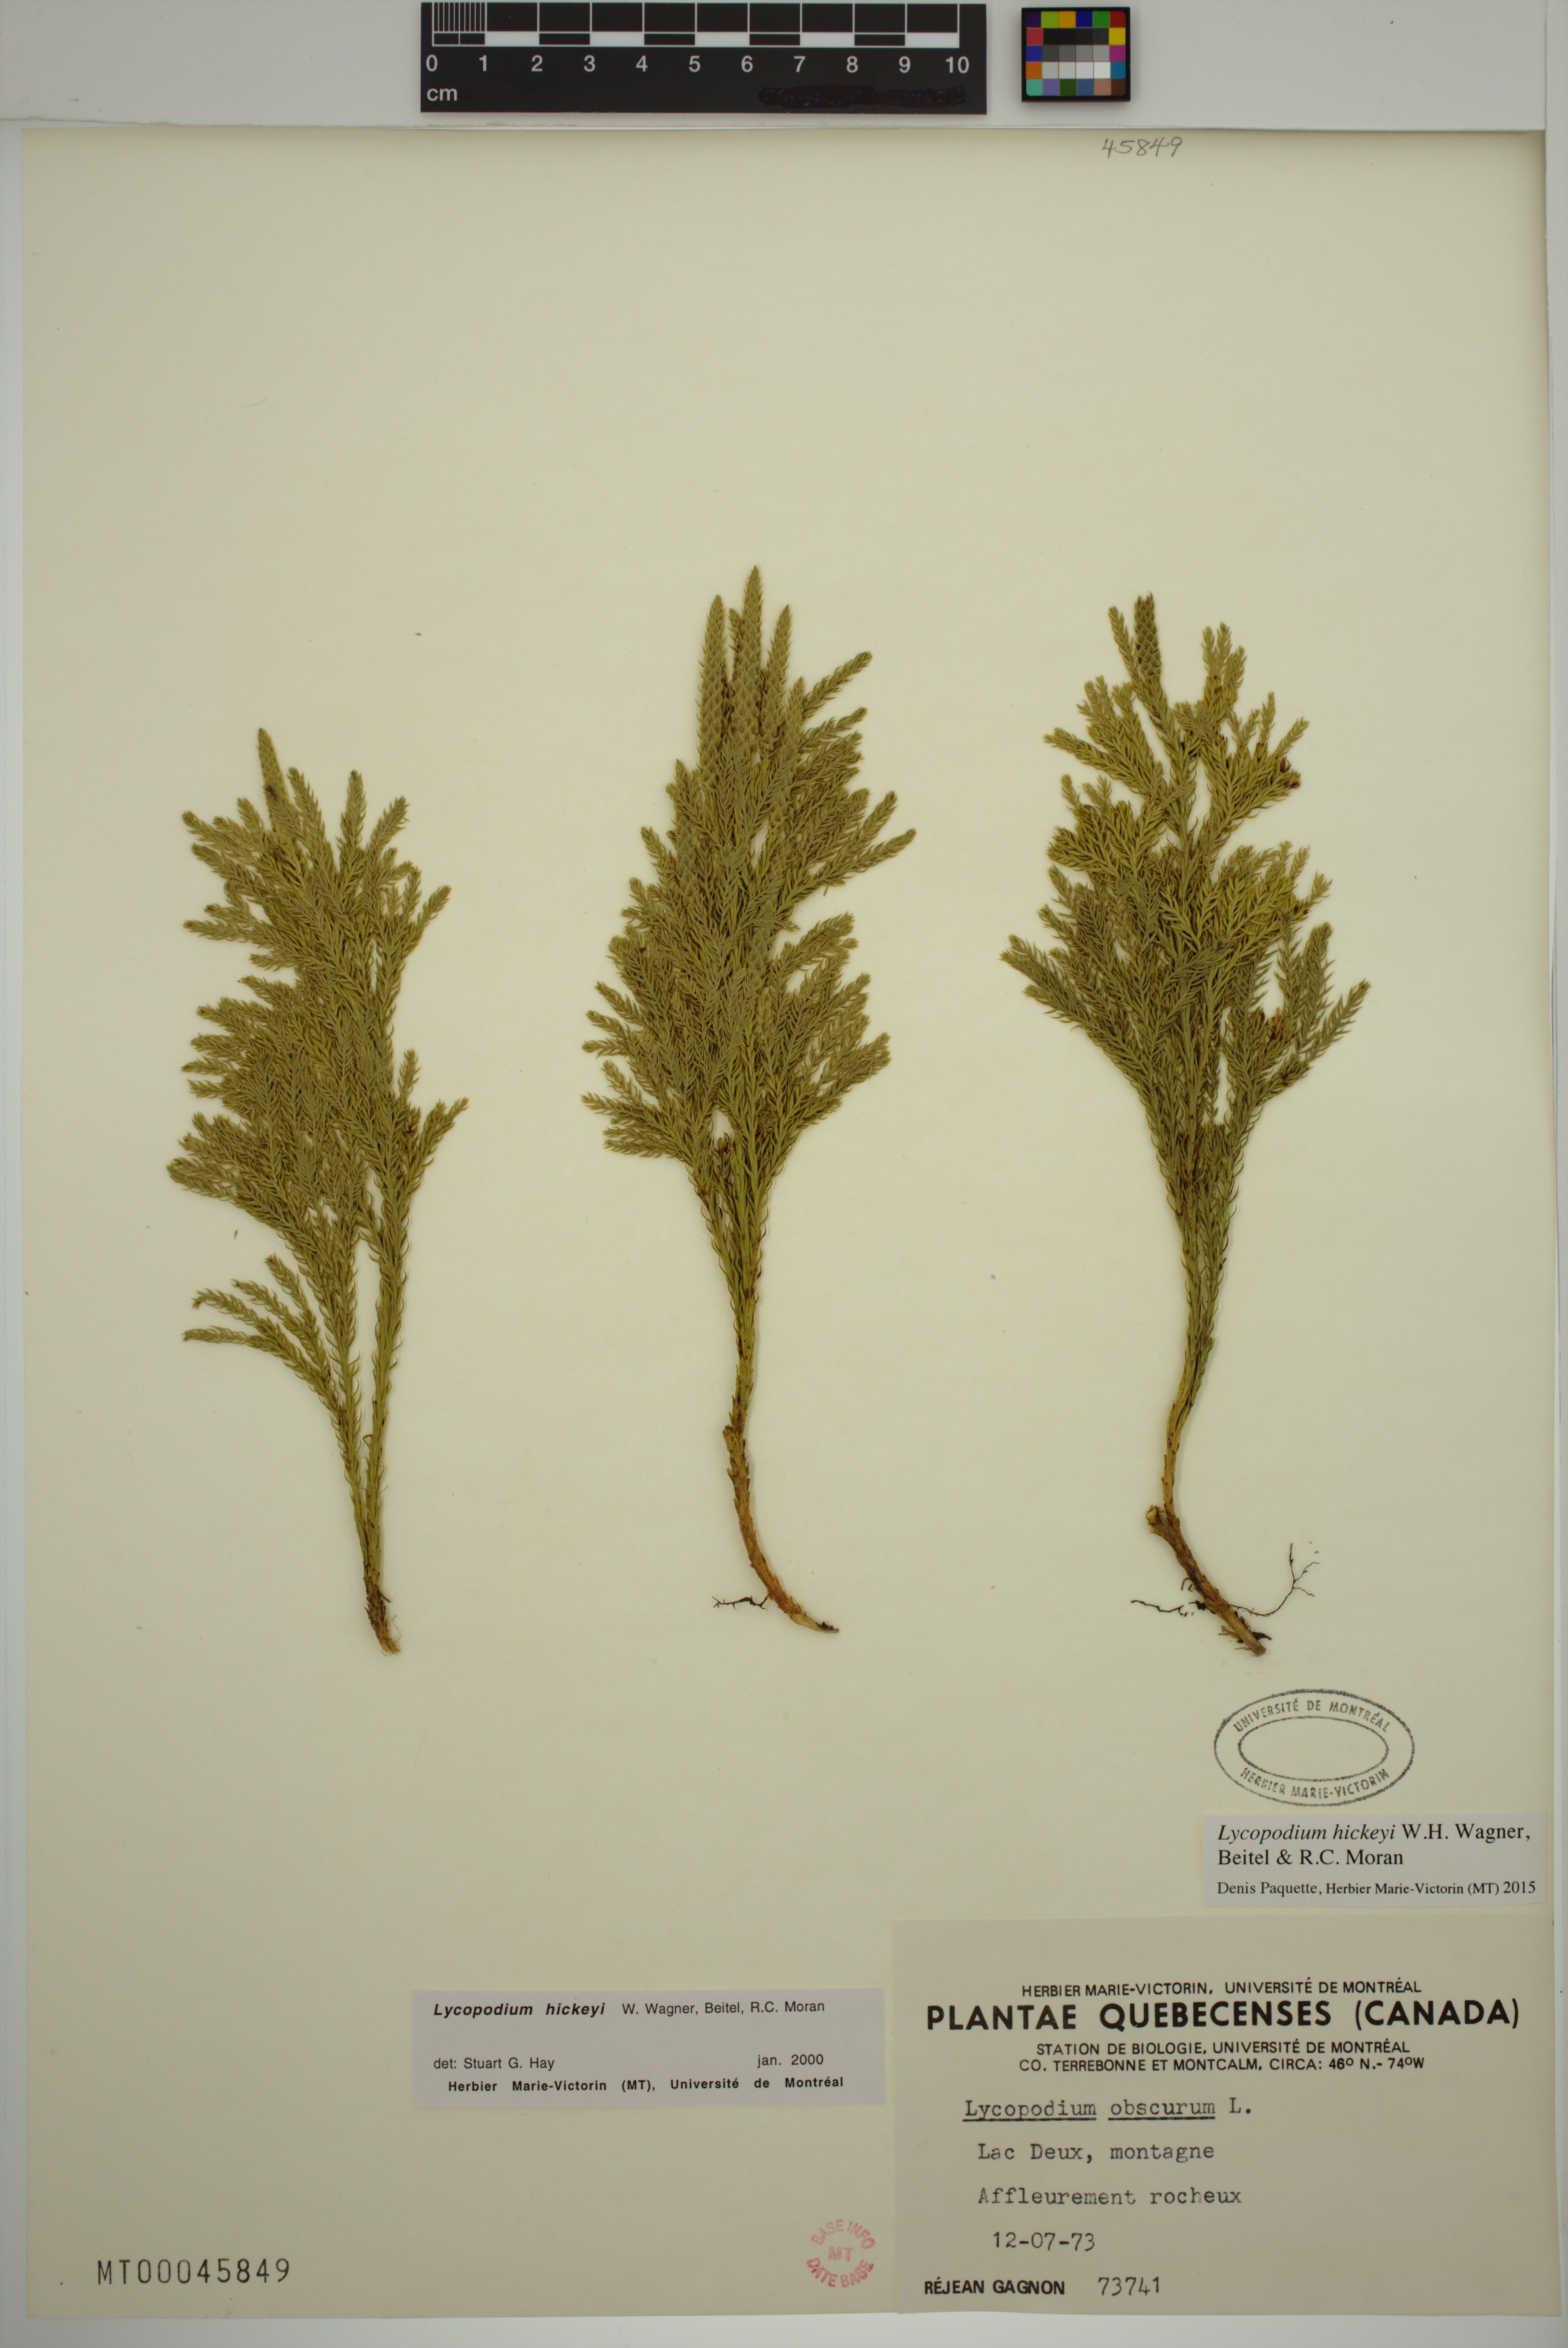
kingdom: Plantae
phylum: Tracheophyta
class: Lycopodiopsida
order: Lycopodiales
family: Lycopodiaceae
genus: Dendrolycopodium
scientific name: Dendrolycopodium hickeyi
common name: Hickey's clubmoss
